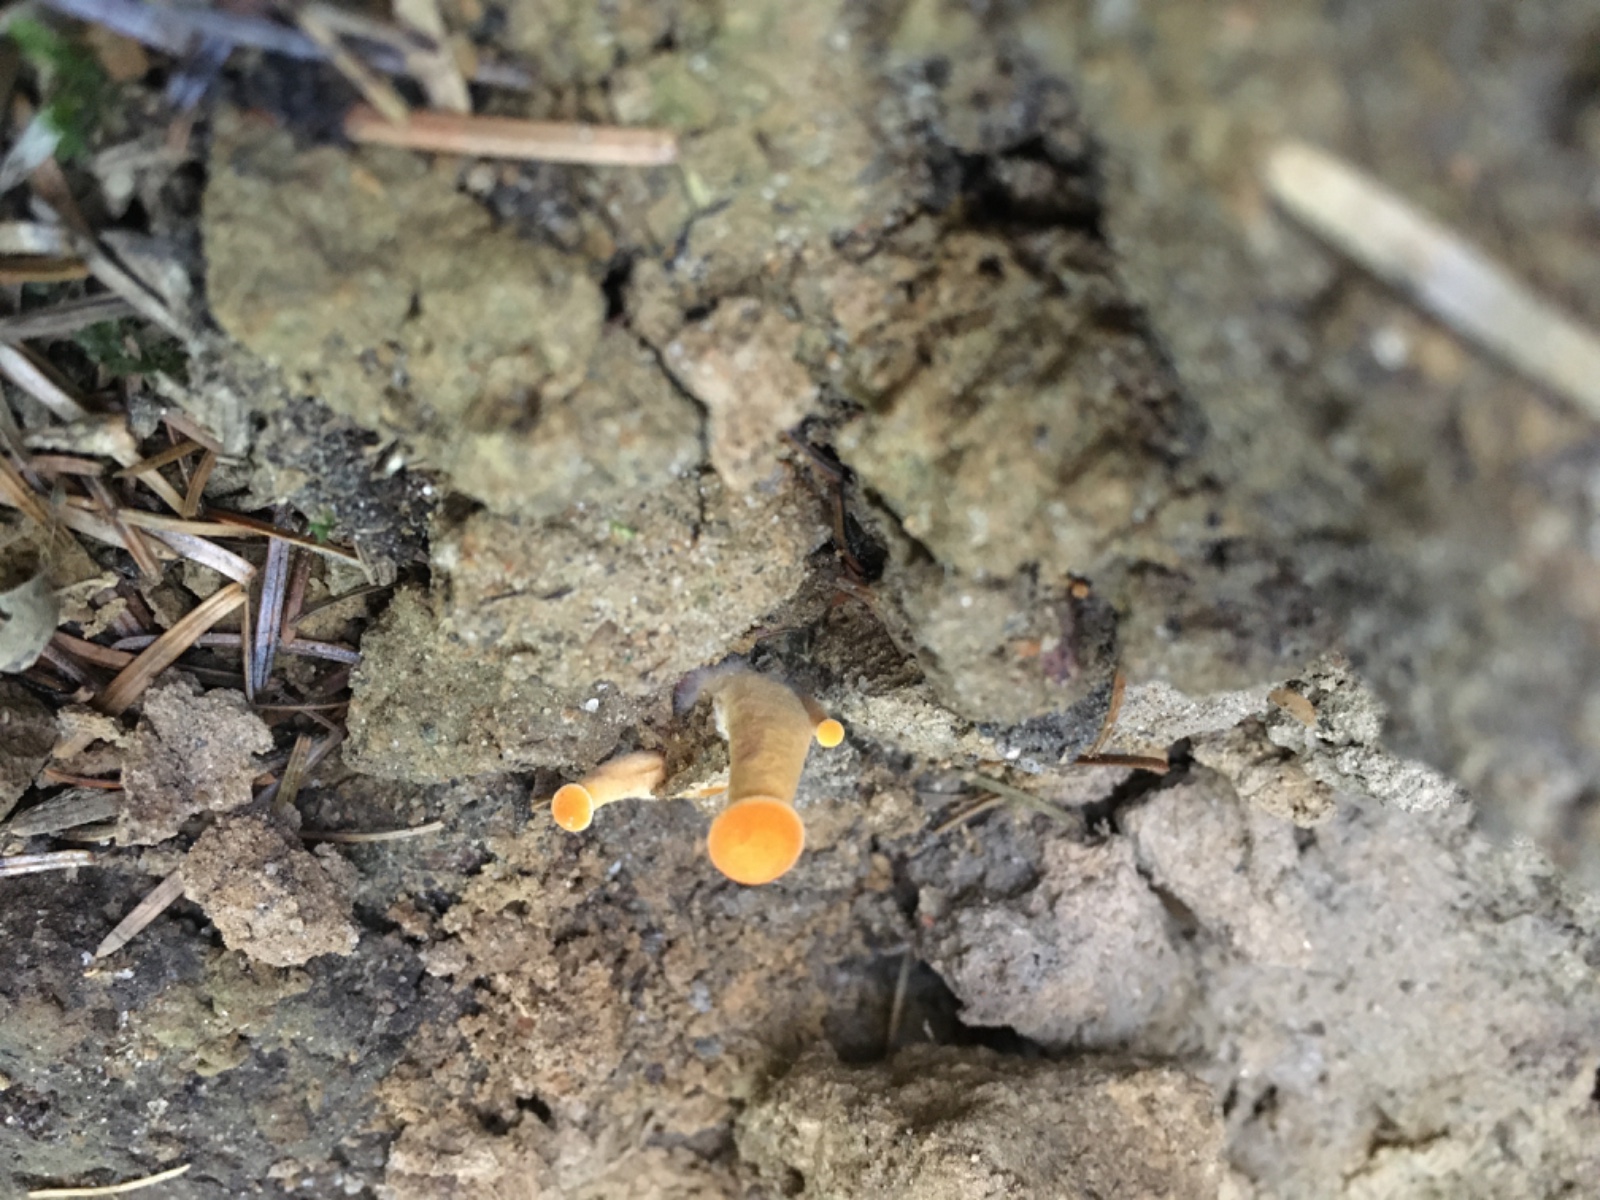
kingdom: Fungi
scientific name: Fungi
